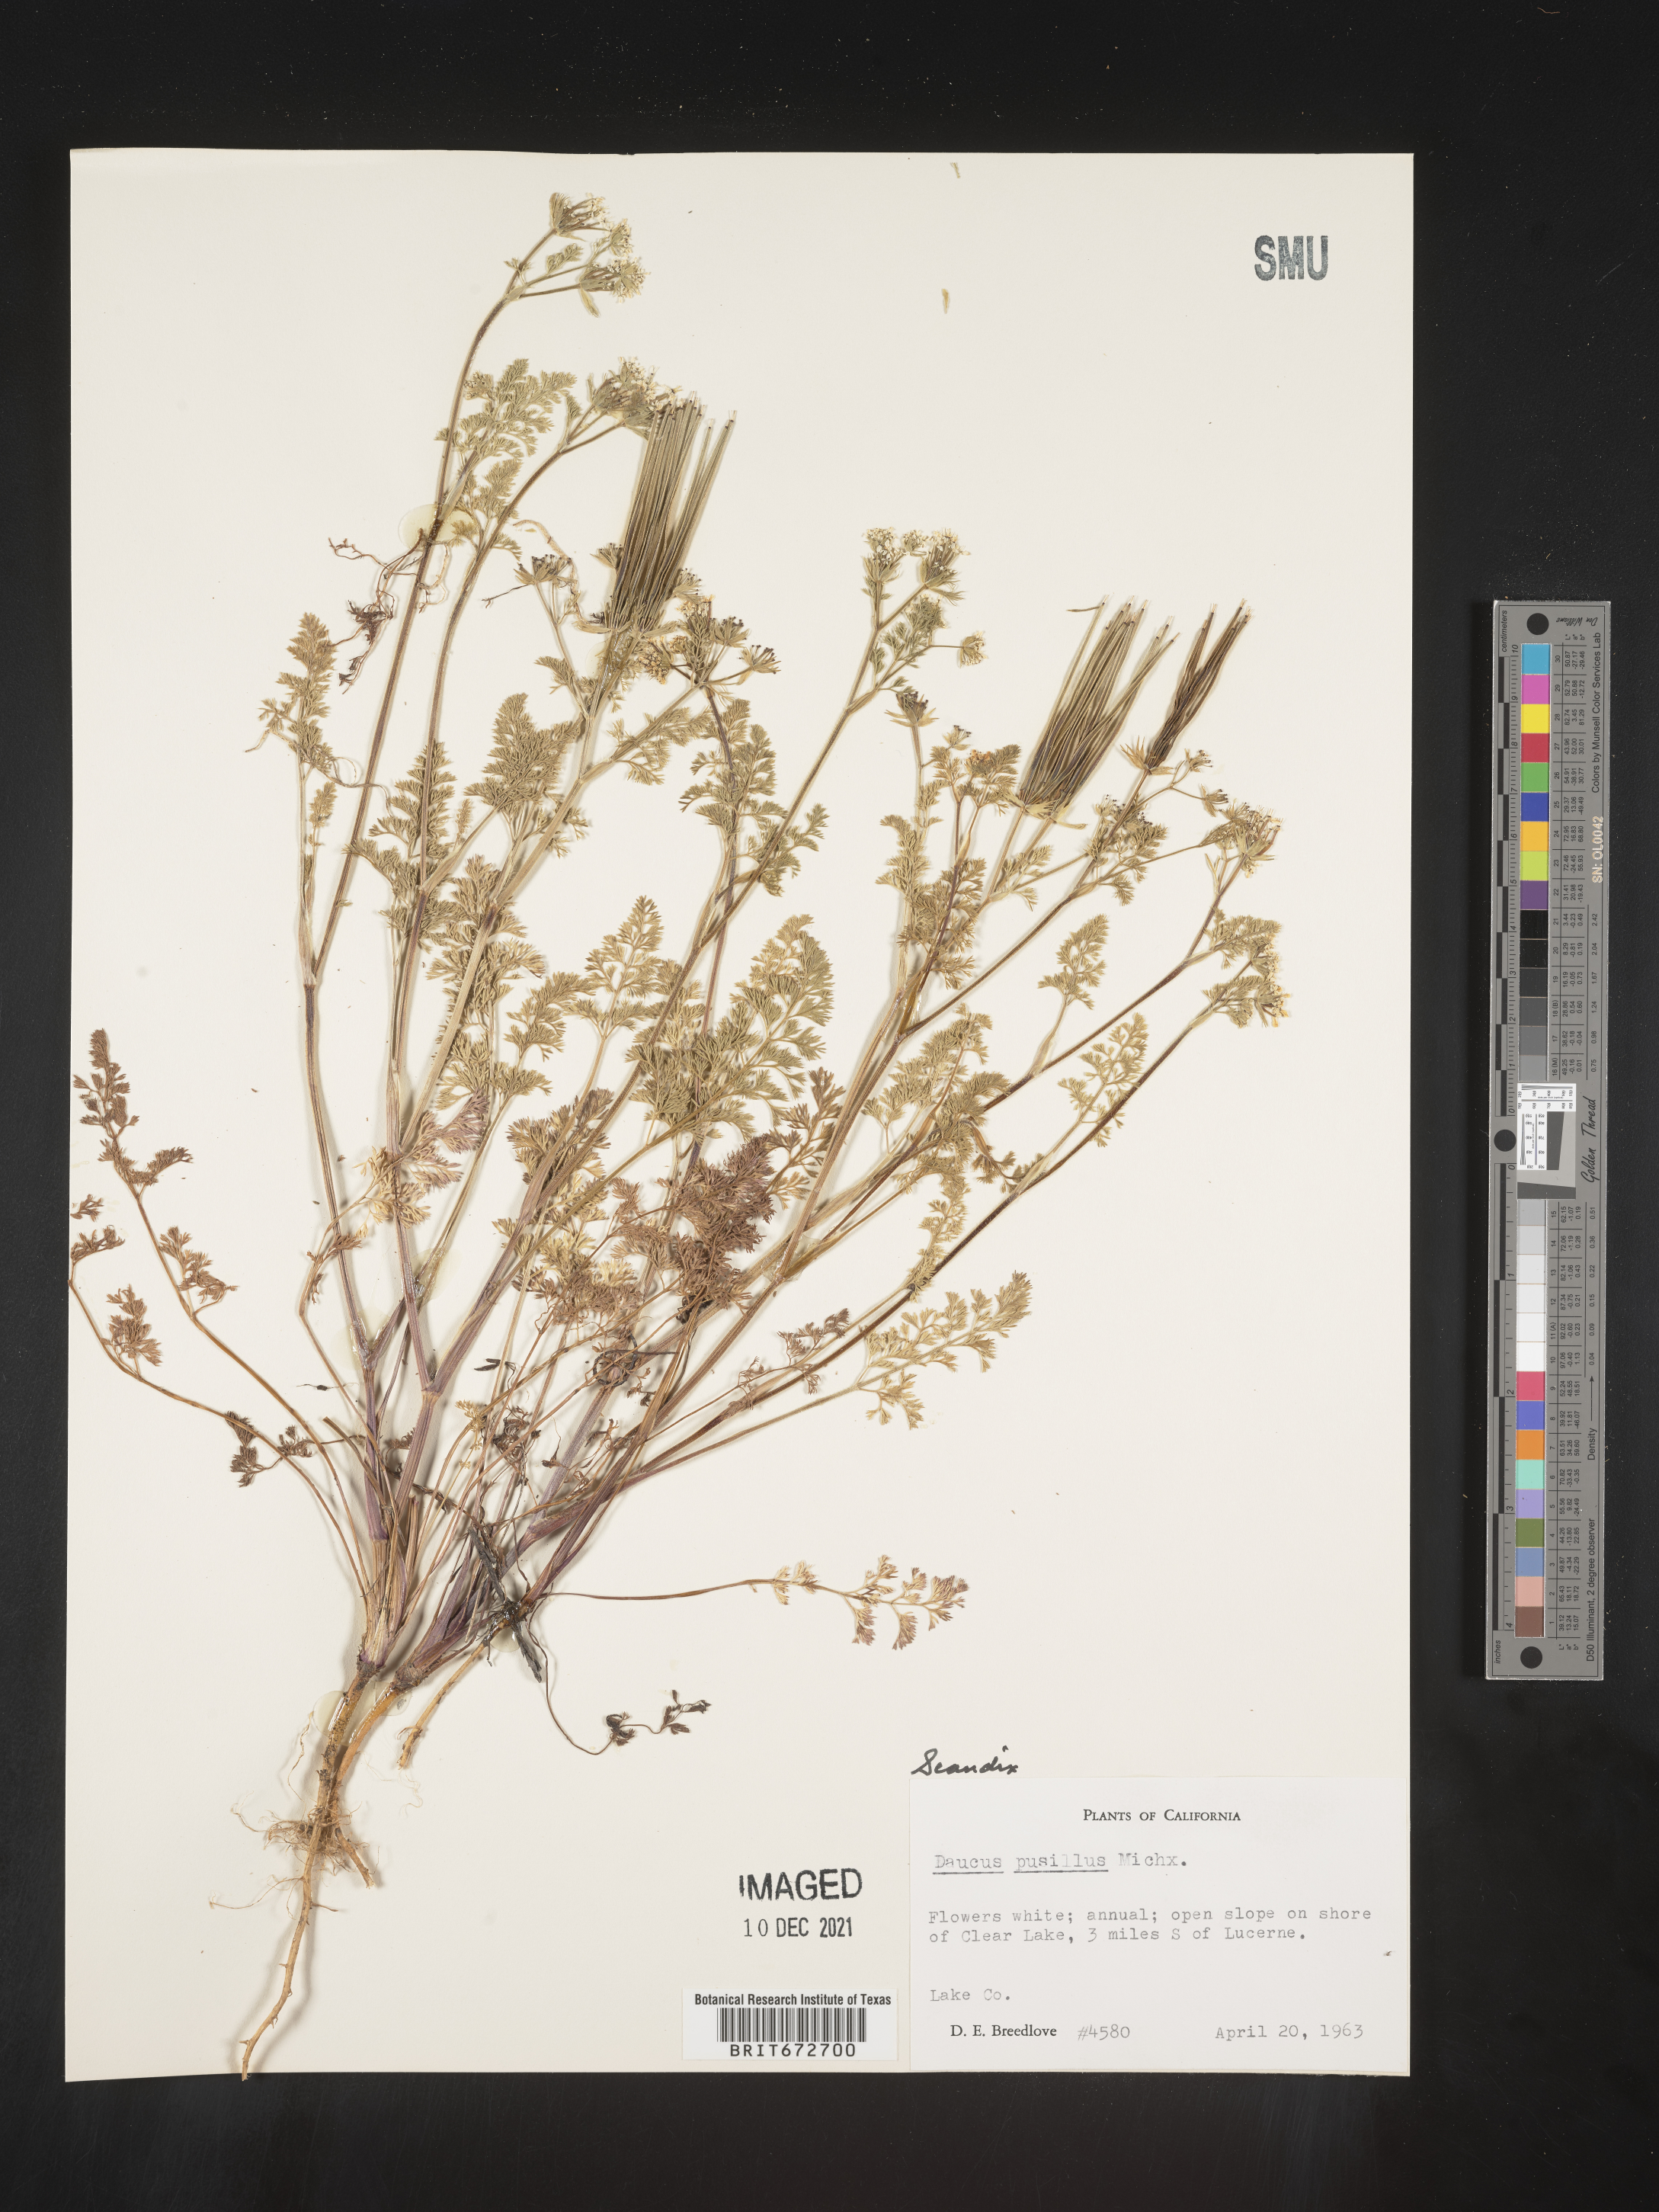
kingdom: Plantae
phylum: Tracheophyta
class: Magnoliopsida
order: Apiales
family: Apiaceae
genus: Scandix
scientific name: Scandix
